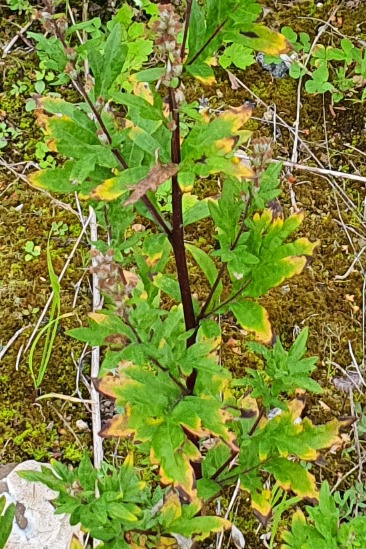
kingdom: Plantae
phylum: Tracheophyta
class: Magnoliopsida
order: Asterales
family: Asteraceae
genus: Artemisia
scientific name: Artemisia vulgaris
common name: Grå-bynke
